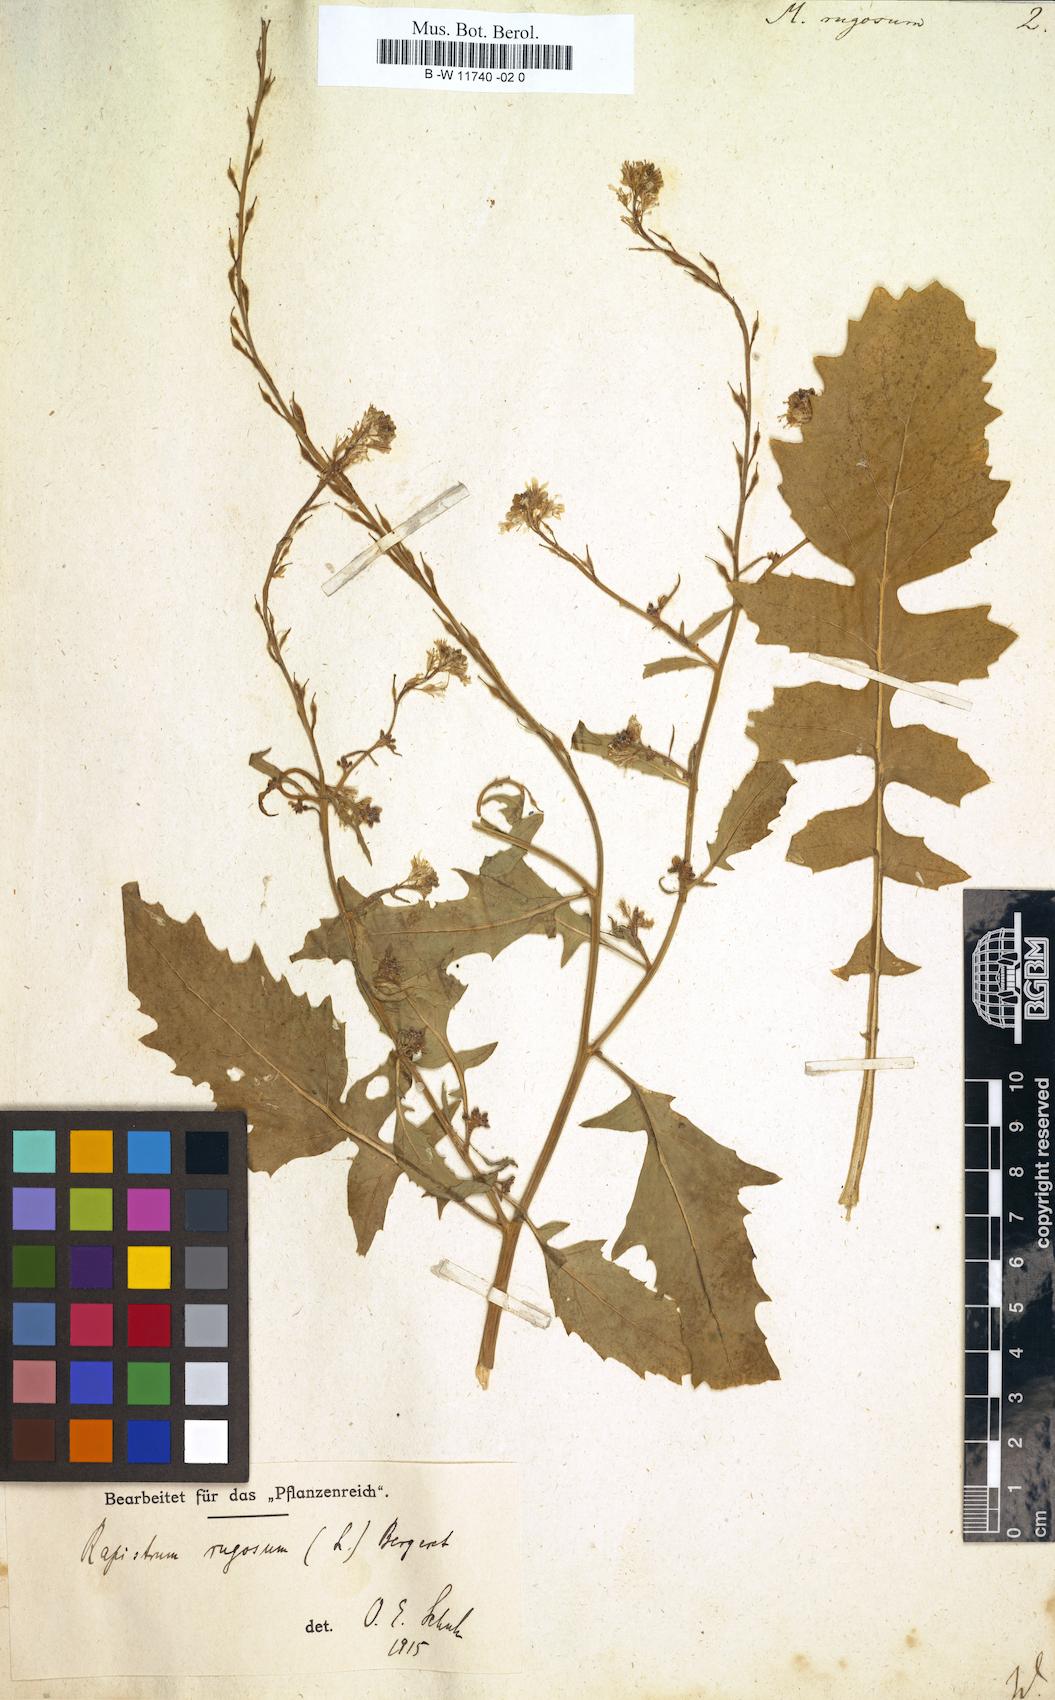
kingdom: Plantae
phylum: Tracheophyta
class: Magnoliopsida
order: Brassicales
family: Brassicaceae
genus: Myagrum
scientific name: Myagrum rugosum
